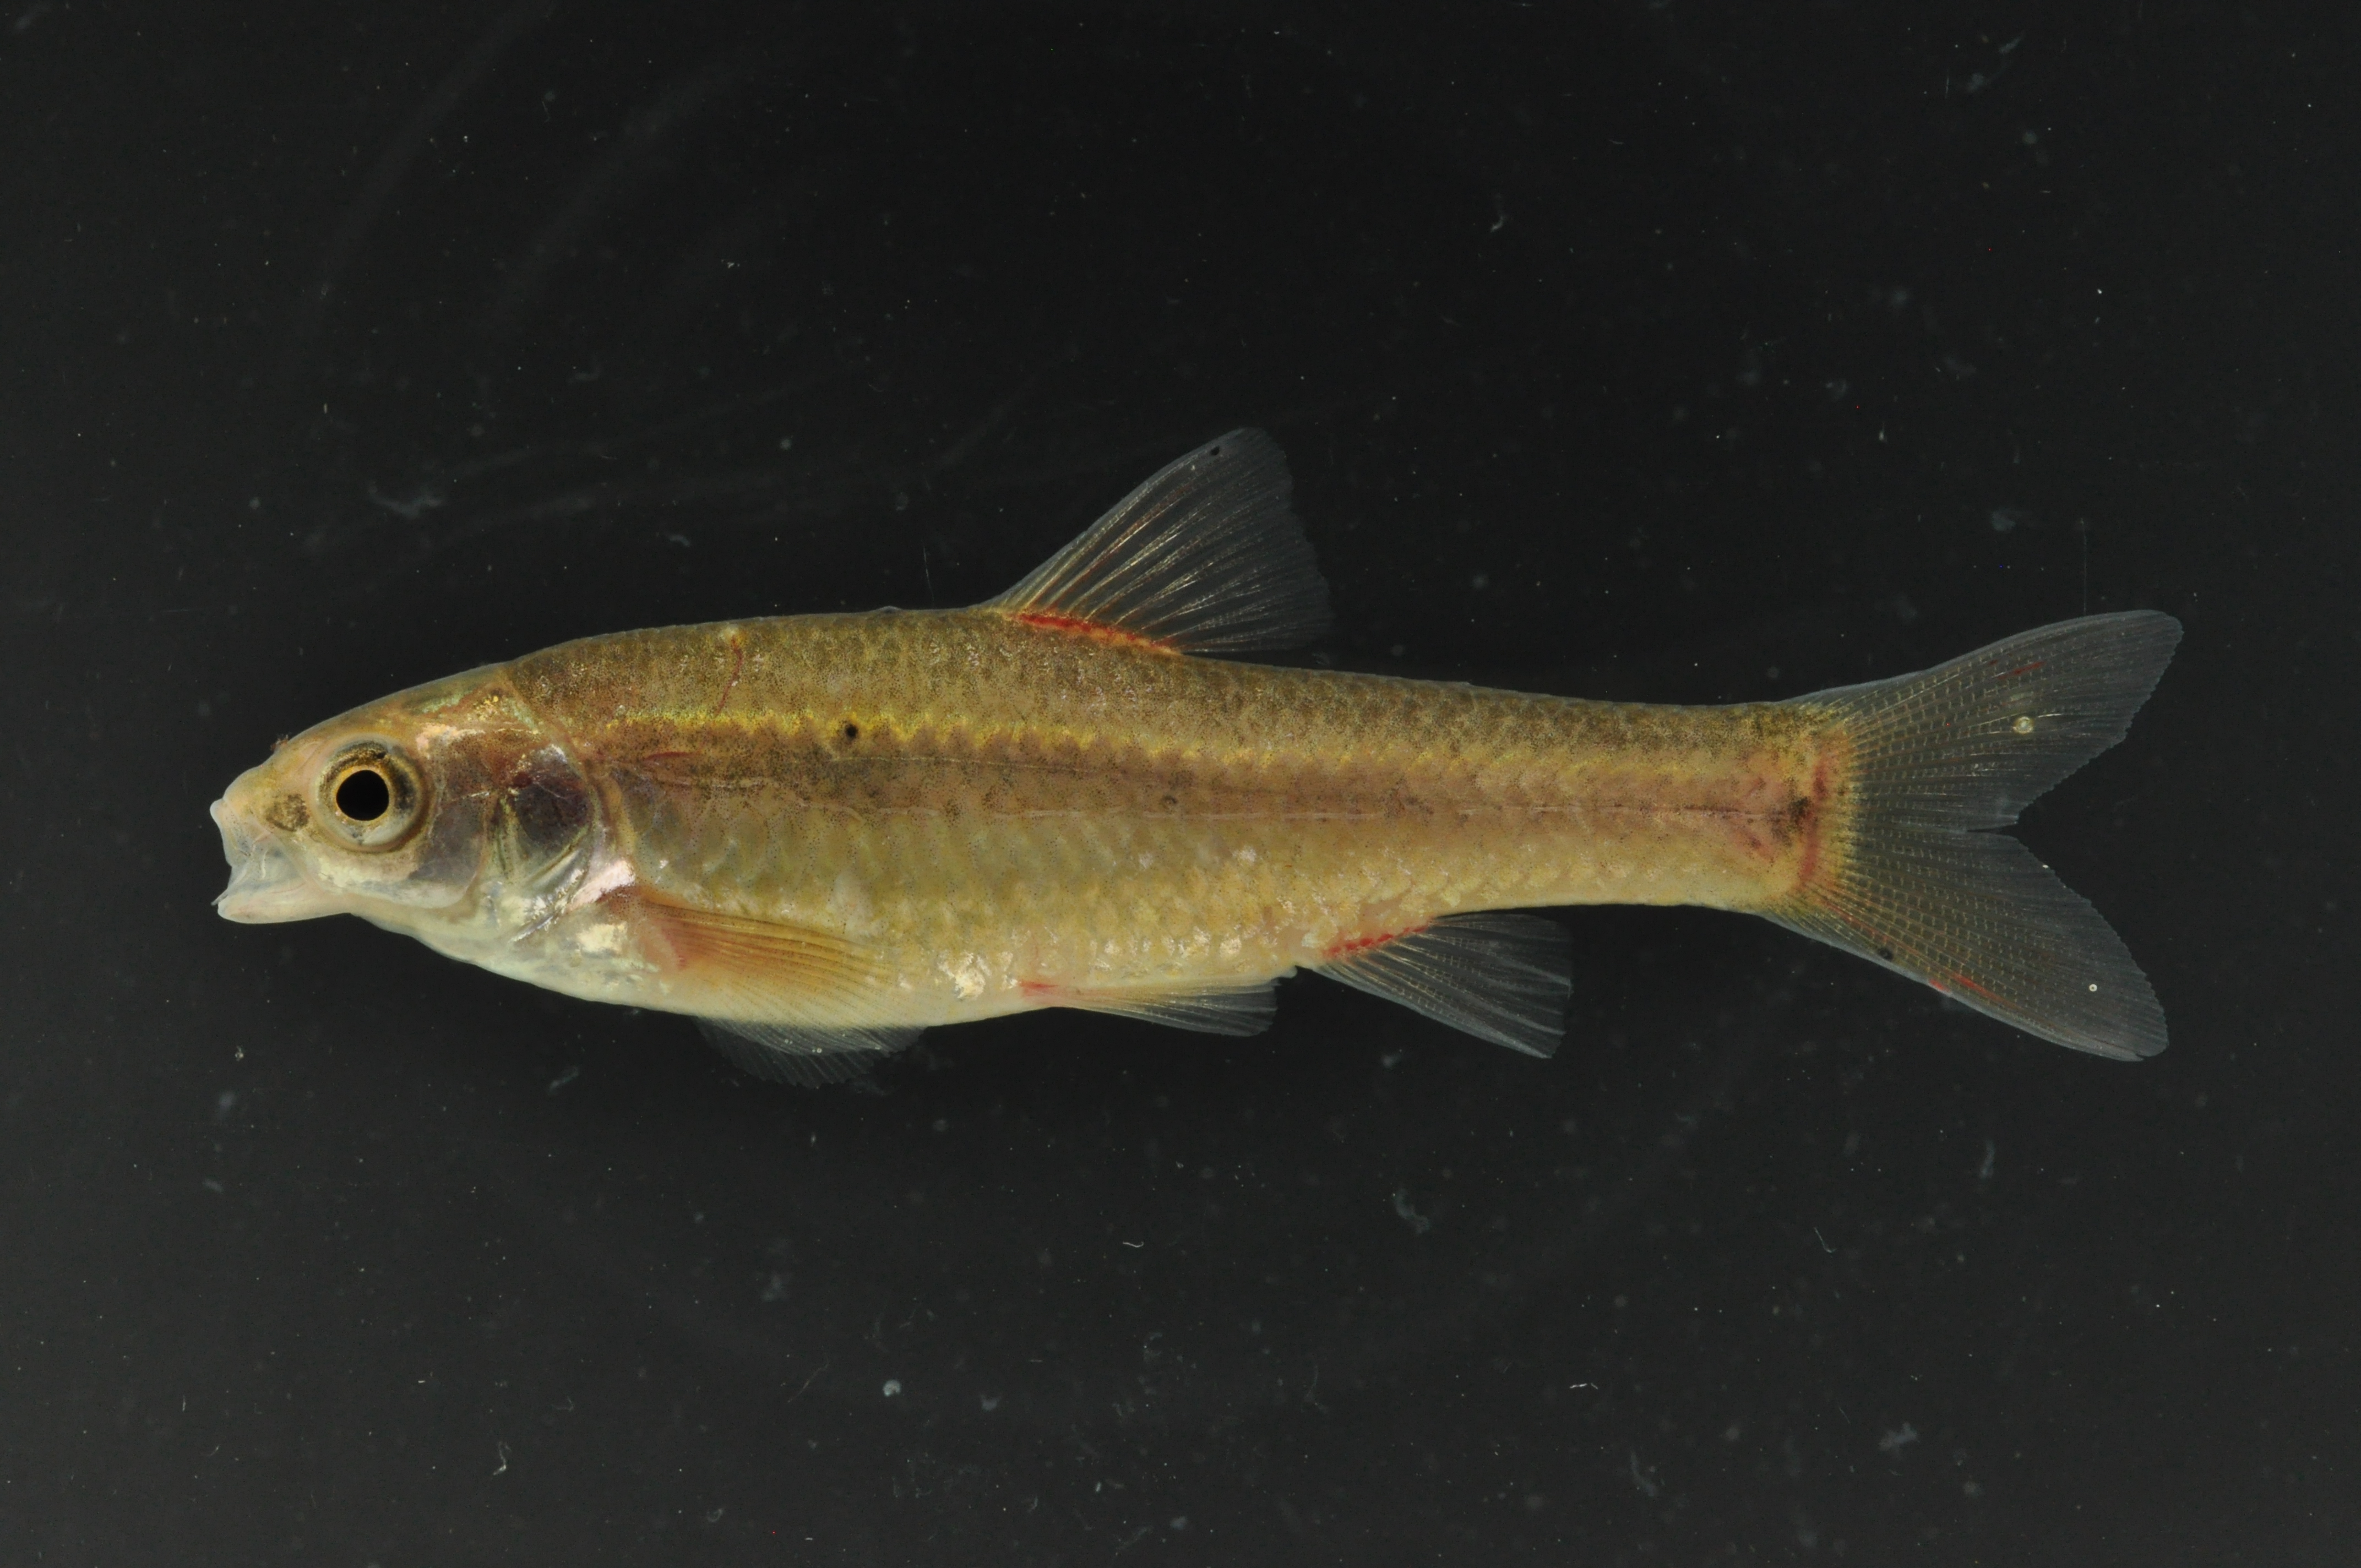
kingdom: Animalia
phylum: Chordata
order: Cypriniformes
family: Cyprinidae
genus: Enteromius
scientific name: Enteromius anoplus
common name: Chubbyhead barb
